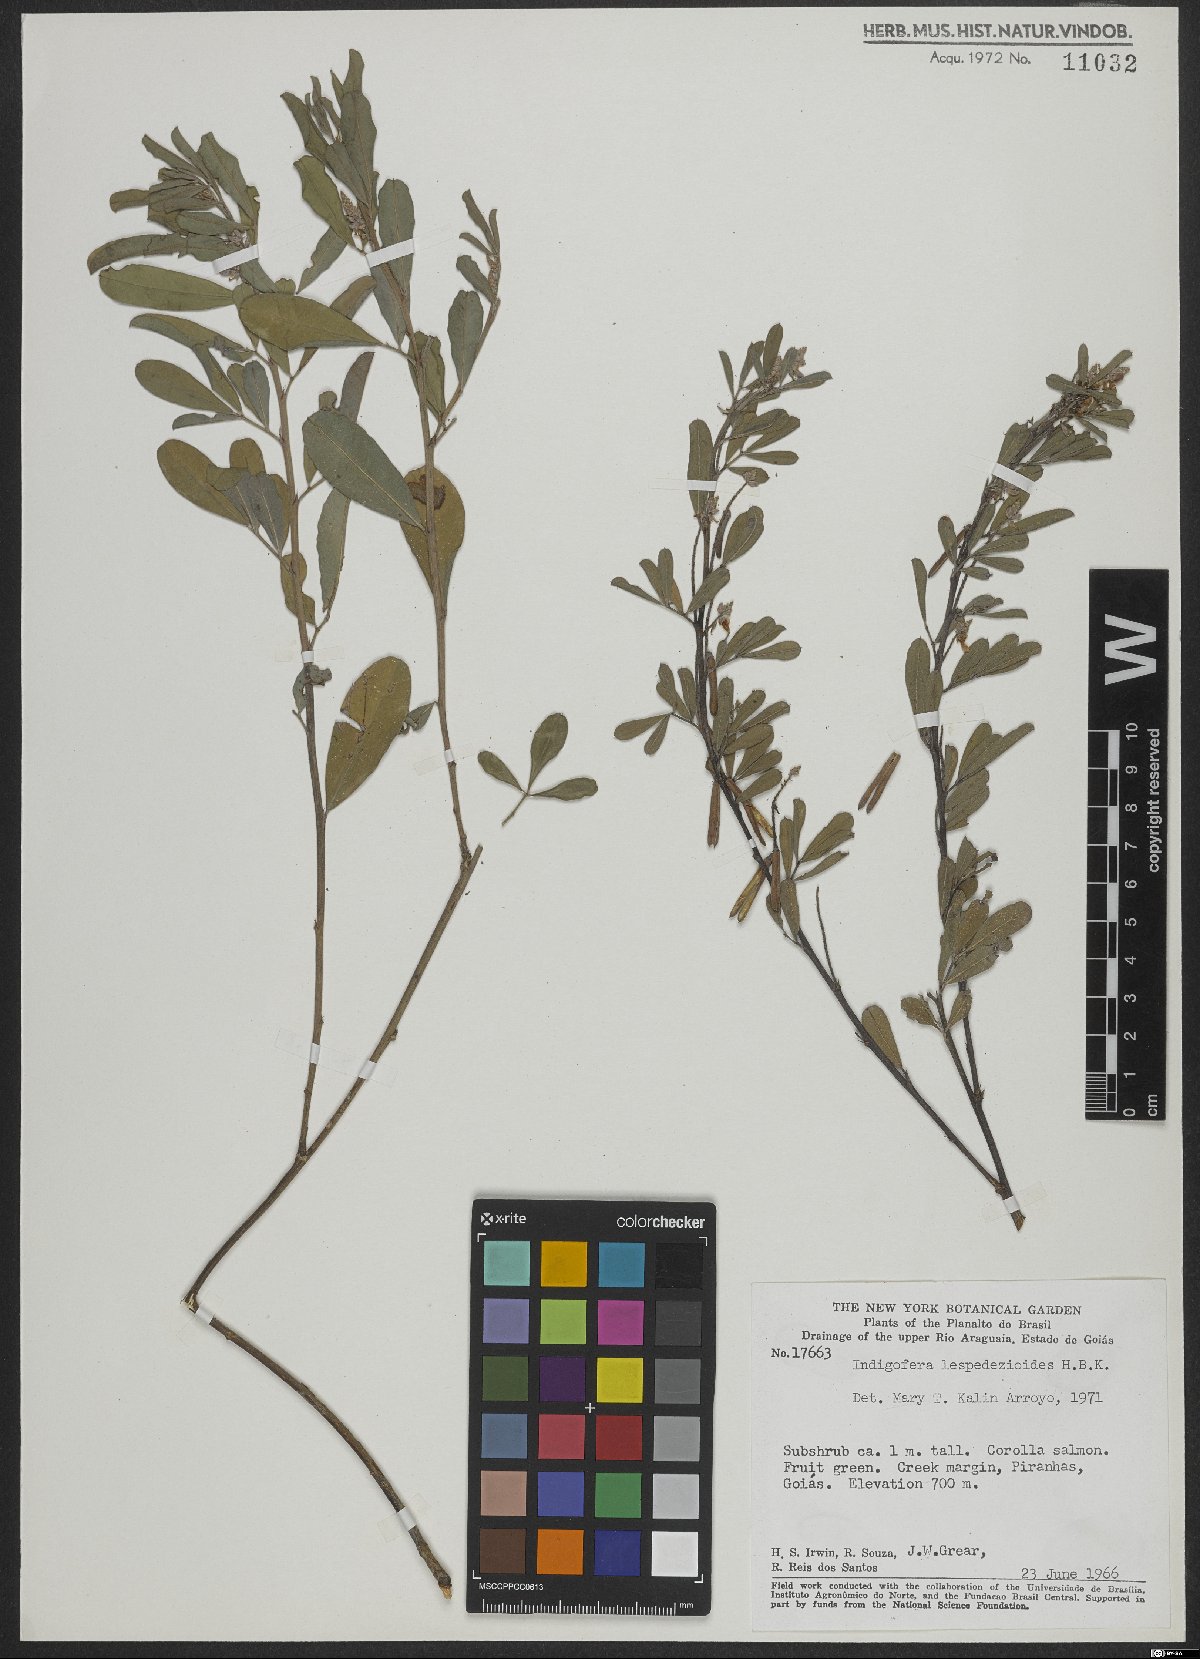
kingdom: Plantae
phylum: Tracheophyta
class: Magnoliopsida
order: Fabales
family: Fabaceae
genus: Indigofera
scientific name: Indigofera cassioides
